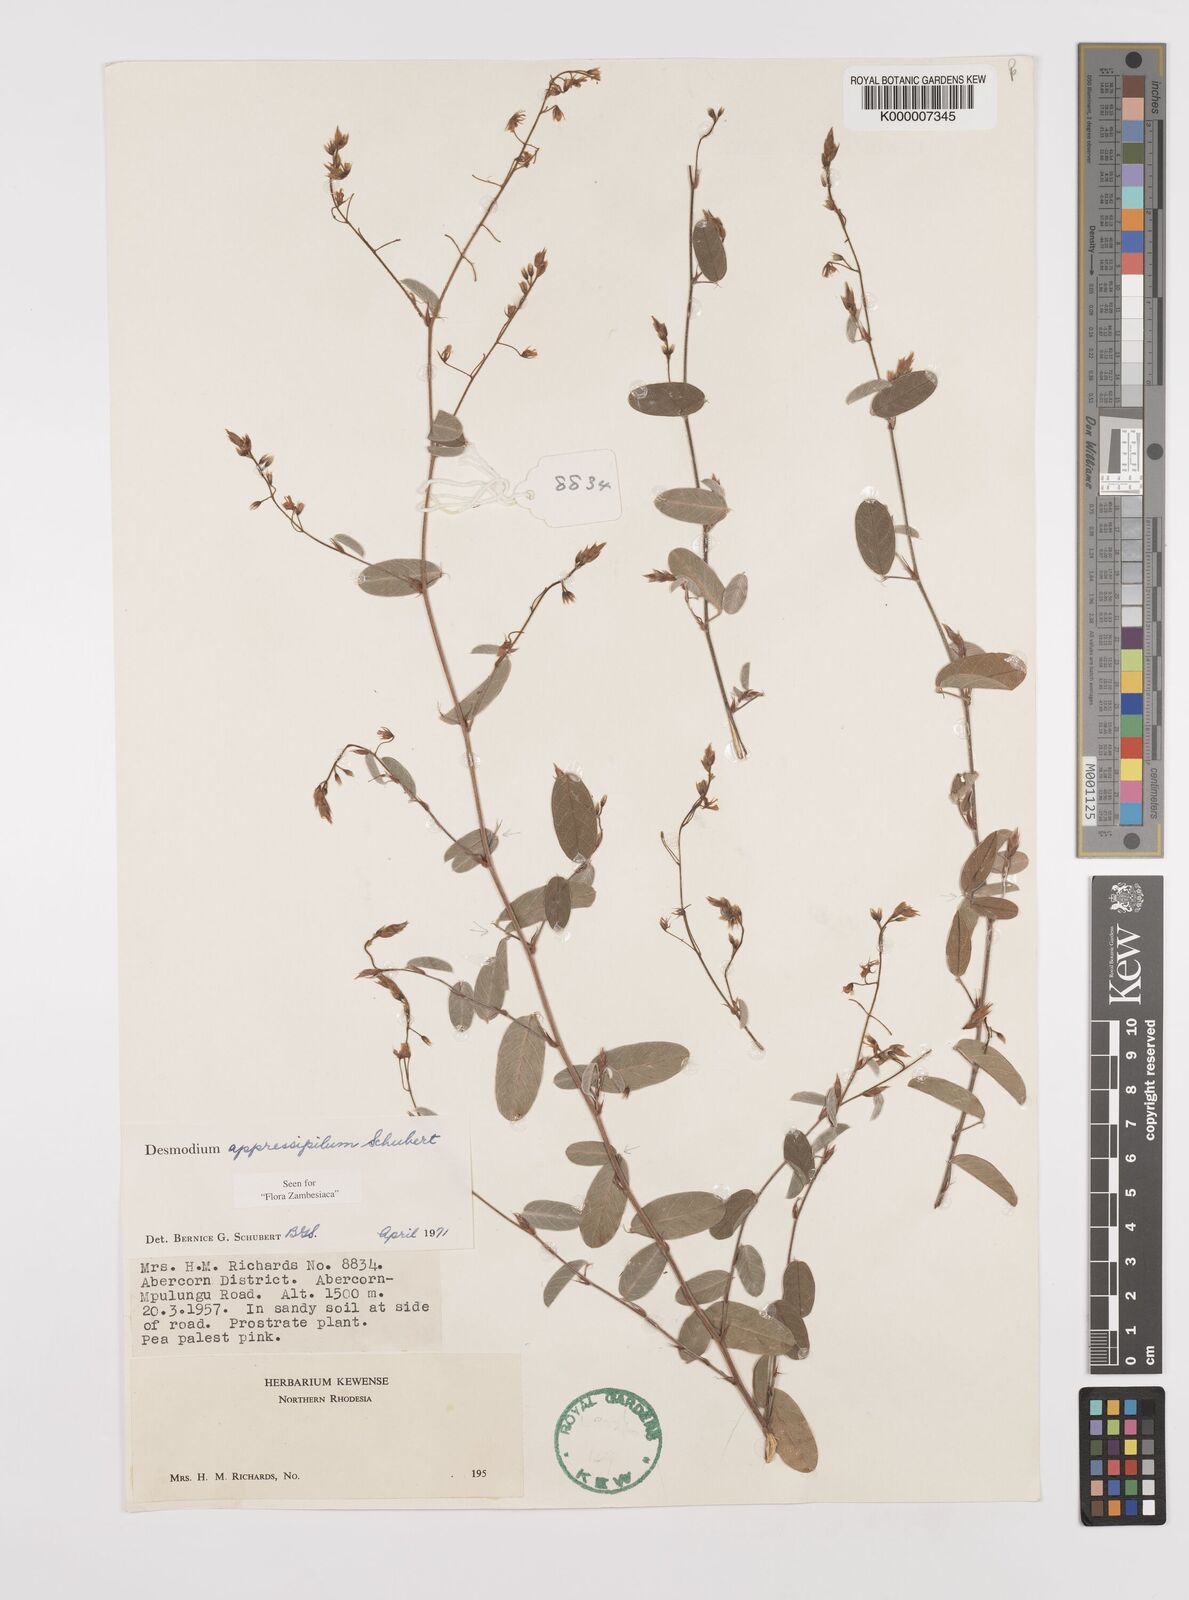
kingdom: Plantae
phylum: Tracheophyta
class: Magnoliopsida
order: Fabales
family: Fabaceae
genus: Grona
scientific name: Grona appressipila
